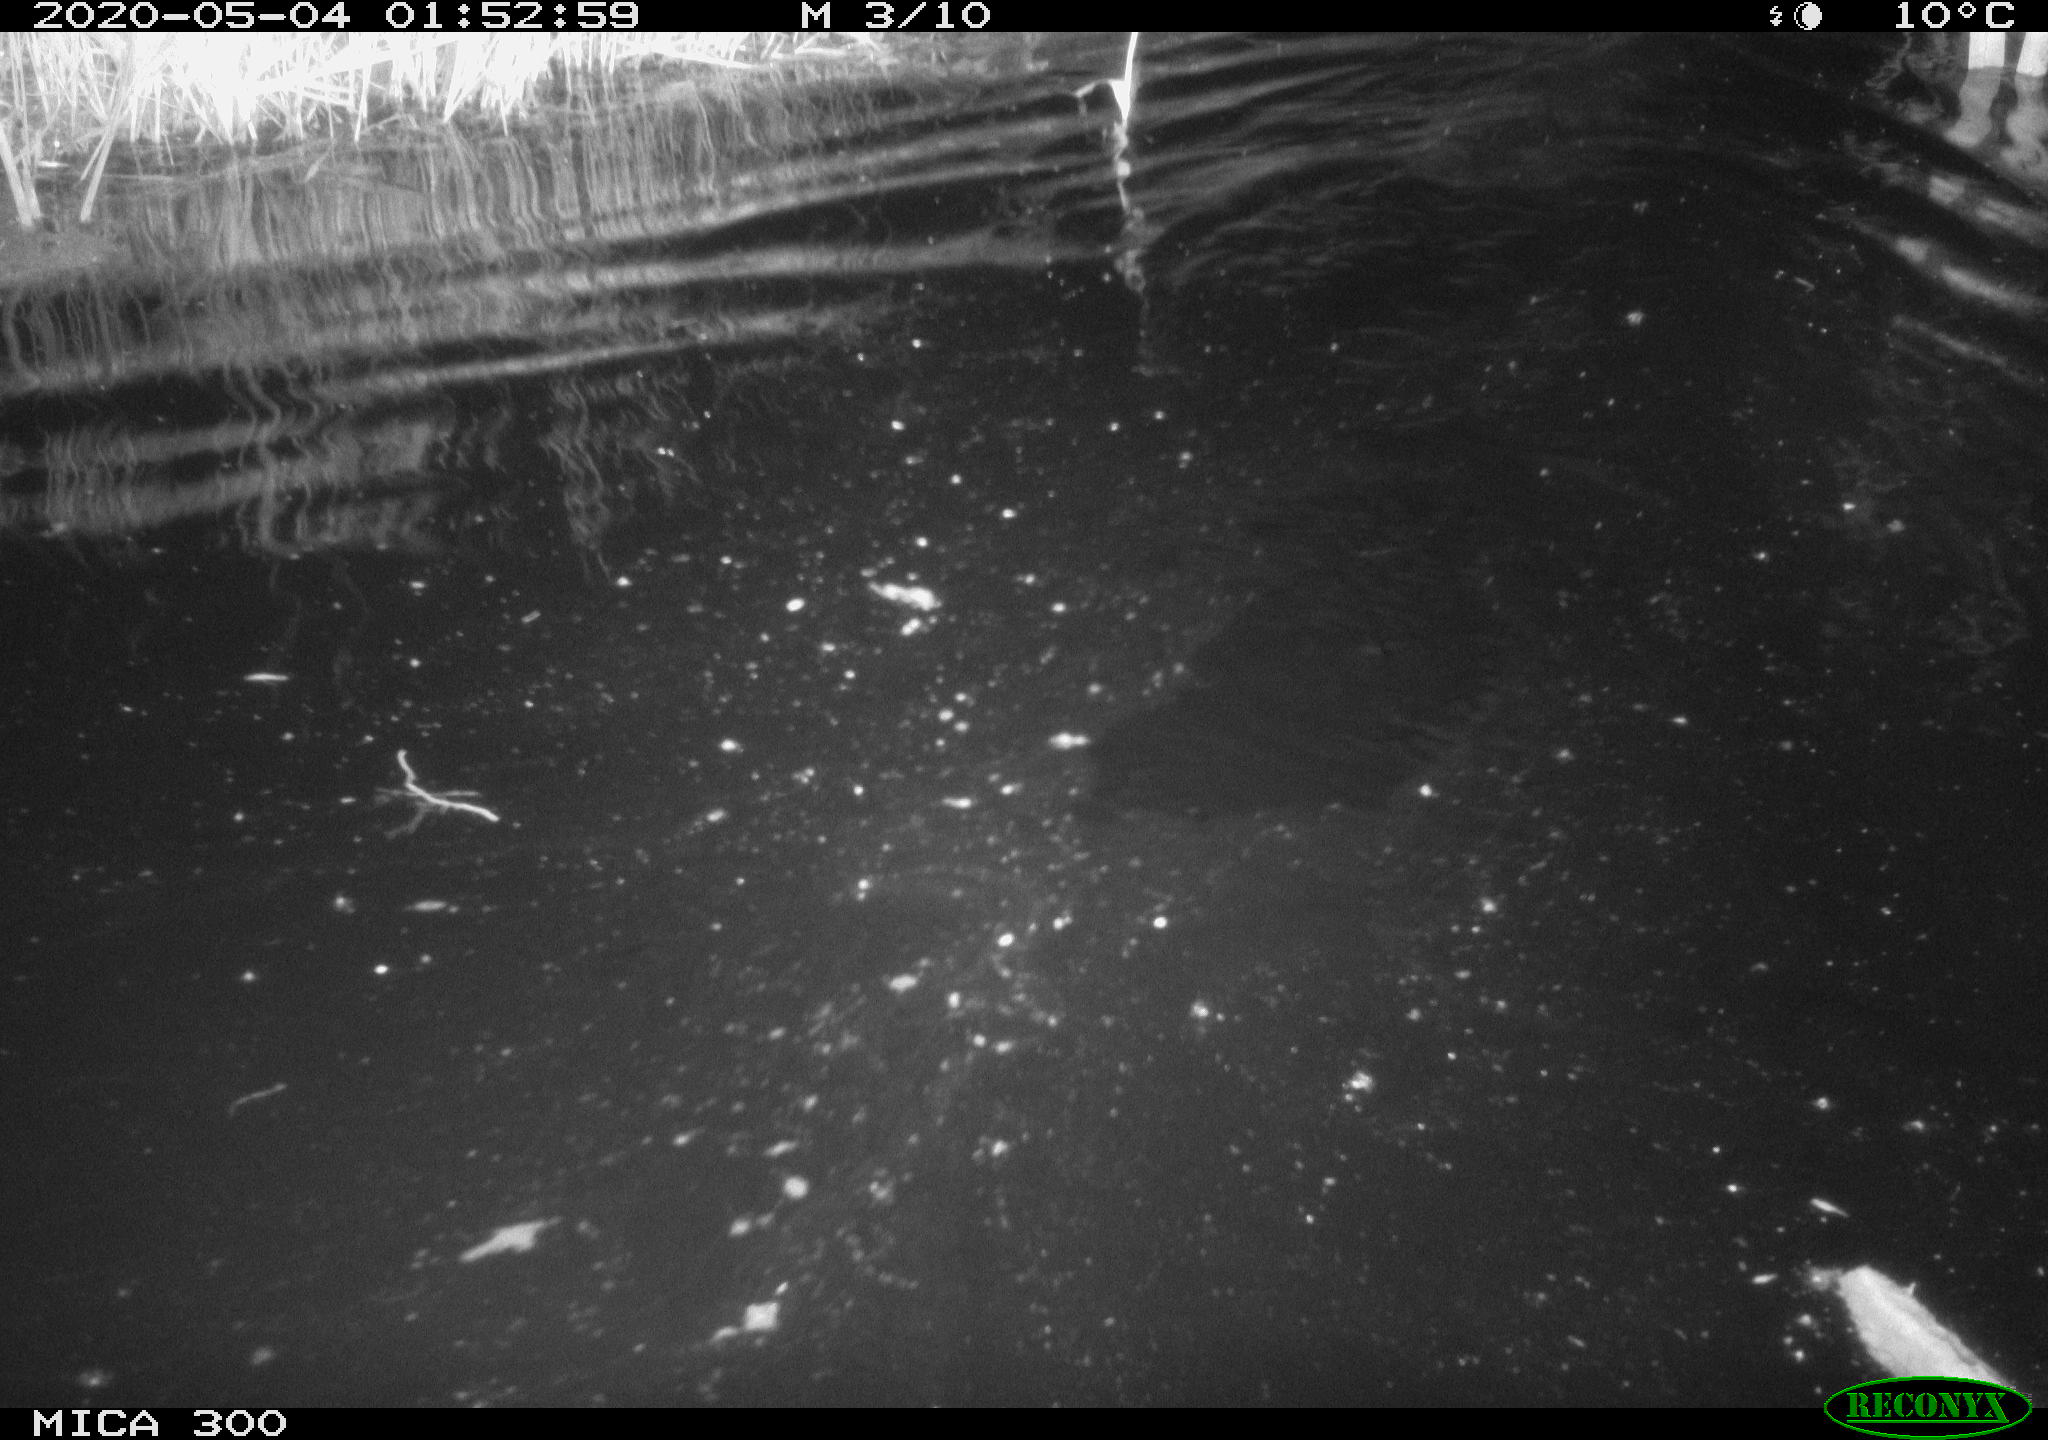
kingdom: Animalia
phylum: Chordata
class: Mammalia
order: Rodentia
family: Castoridae
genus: Castor
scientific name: Castor fiber
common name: Eurasian beaver
